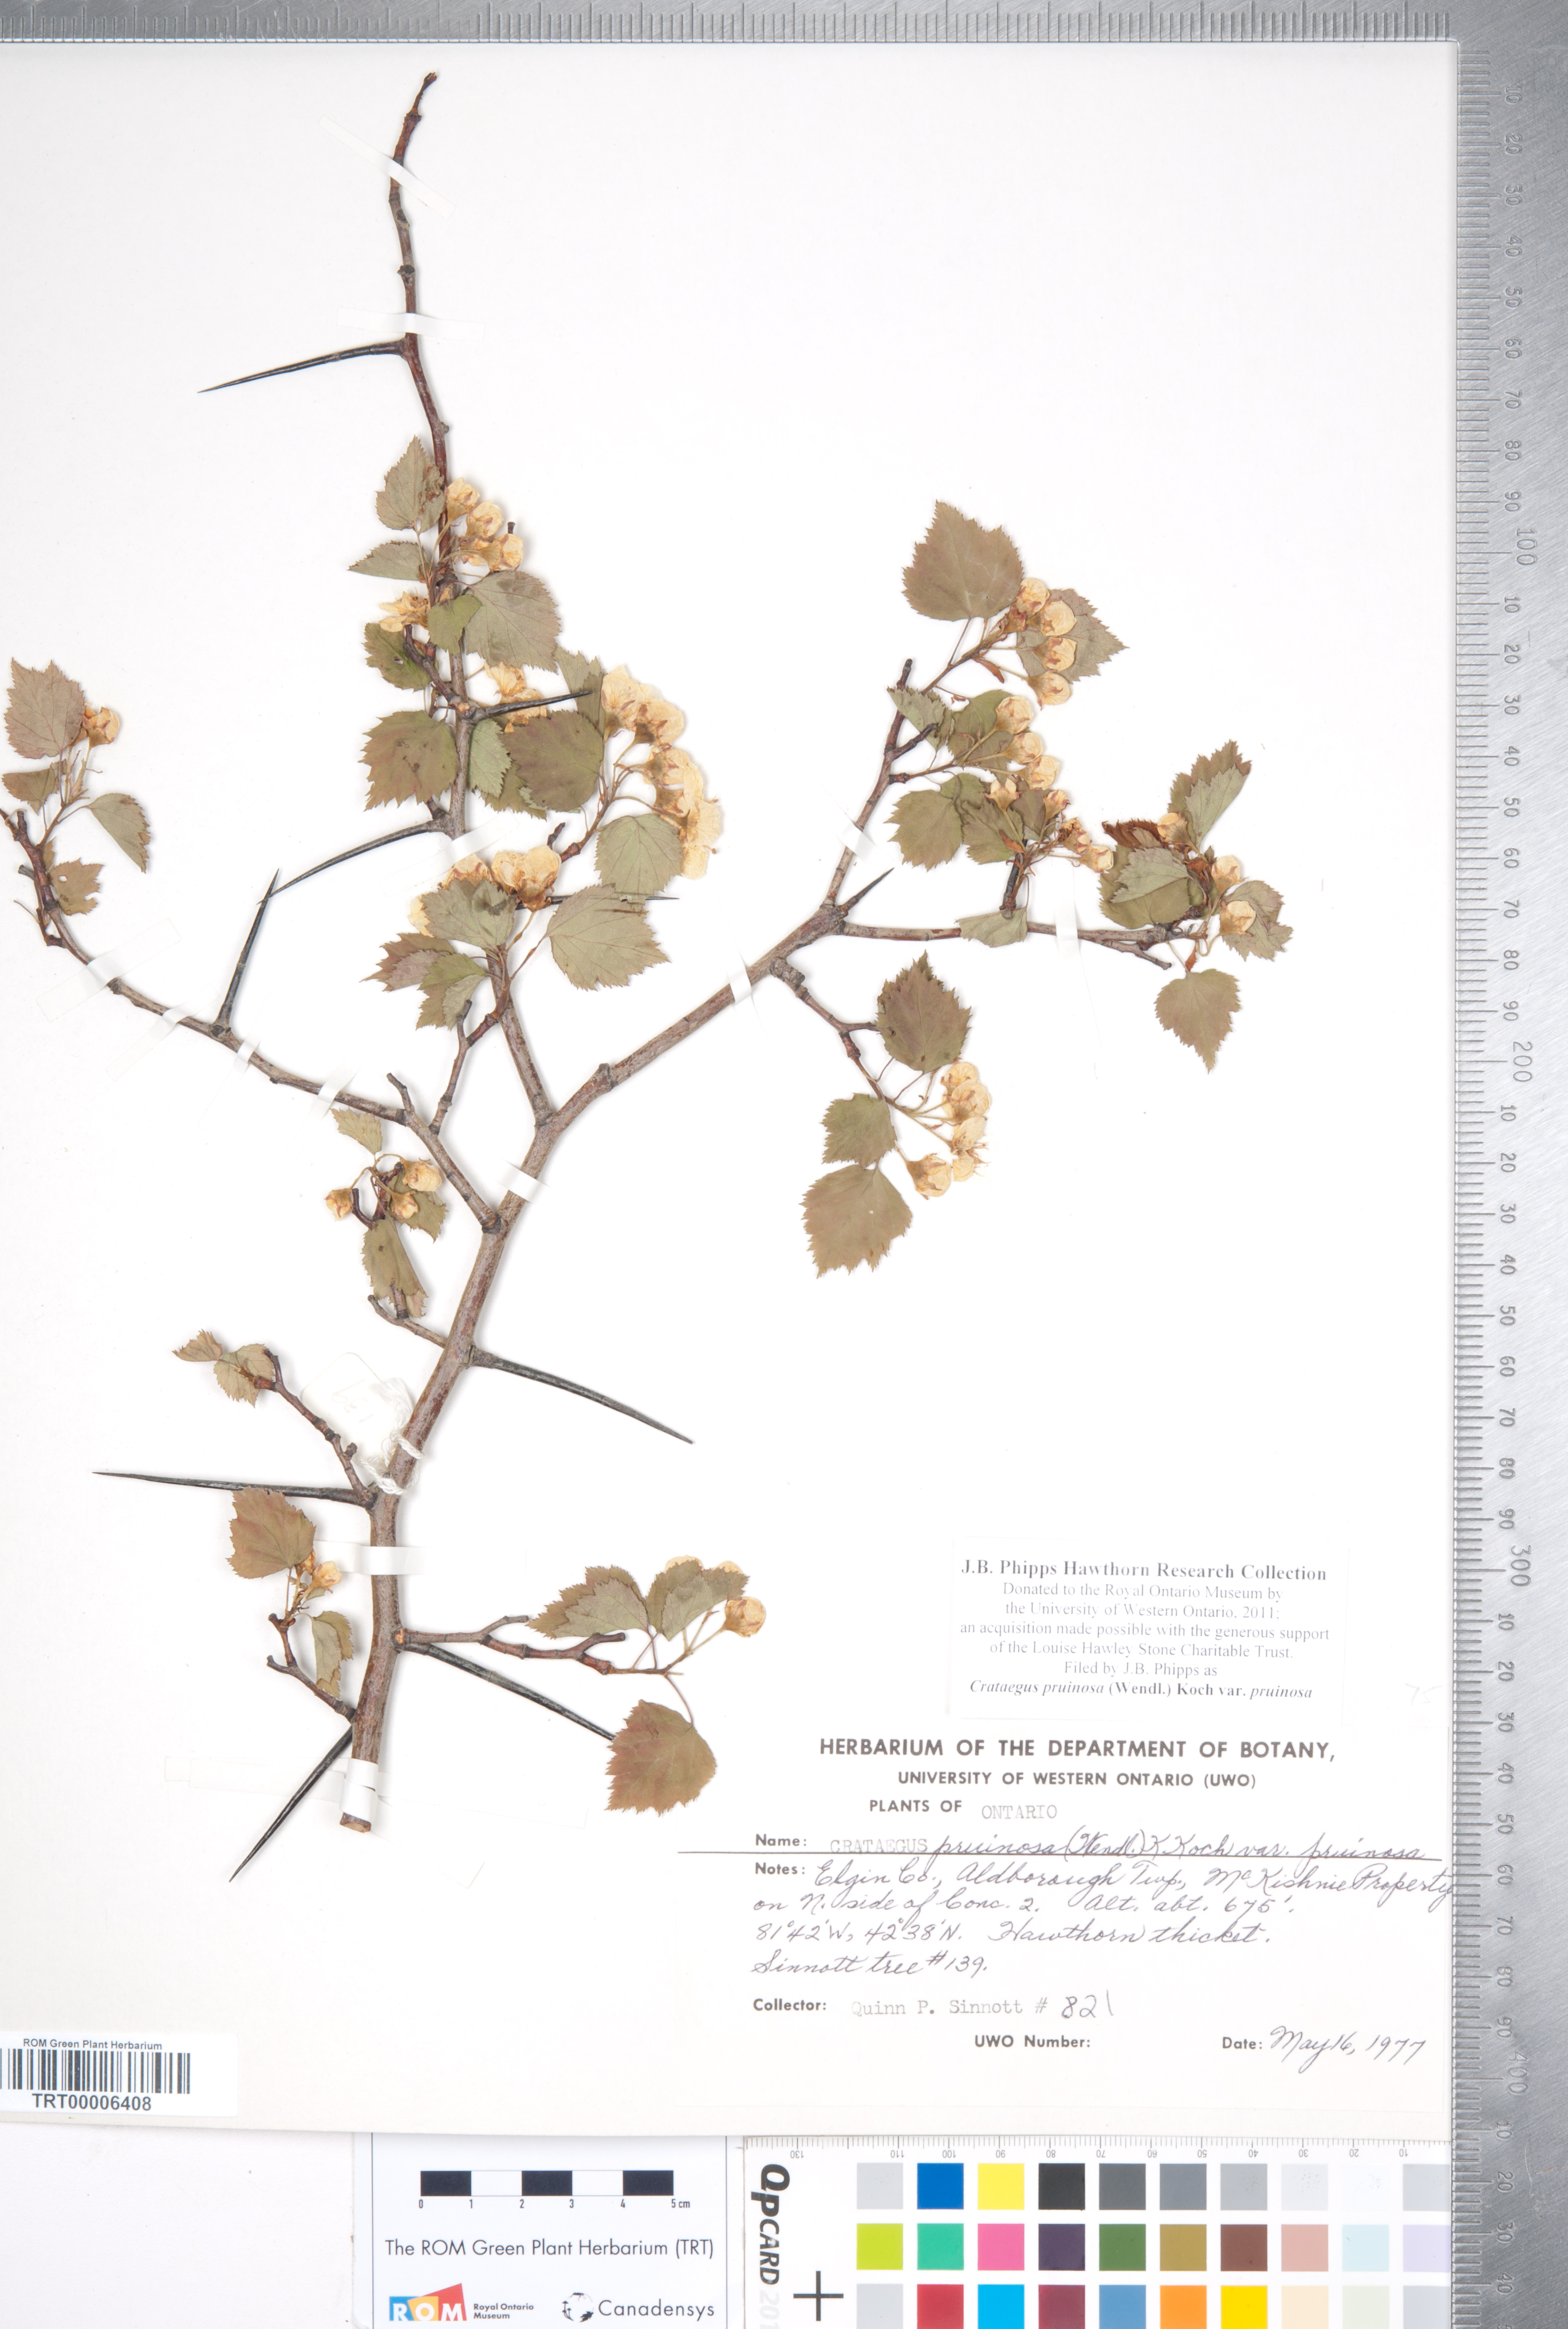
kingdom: Plantae
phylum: Tracheophyta
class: Magnoliopsida
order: Rosales
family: Rosaceae
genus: Crataegus
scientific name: Crataegus pruinosa
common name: Waxy-fruit hawthorn
